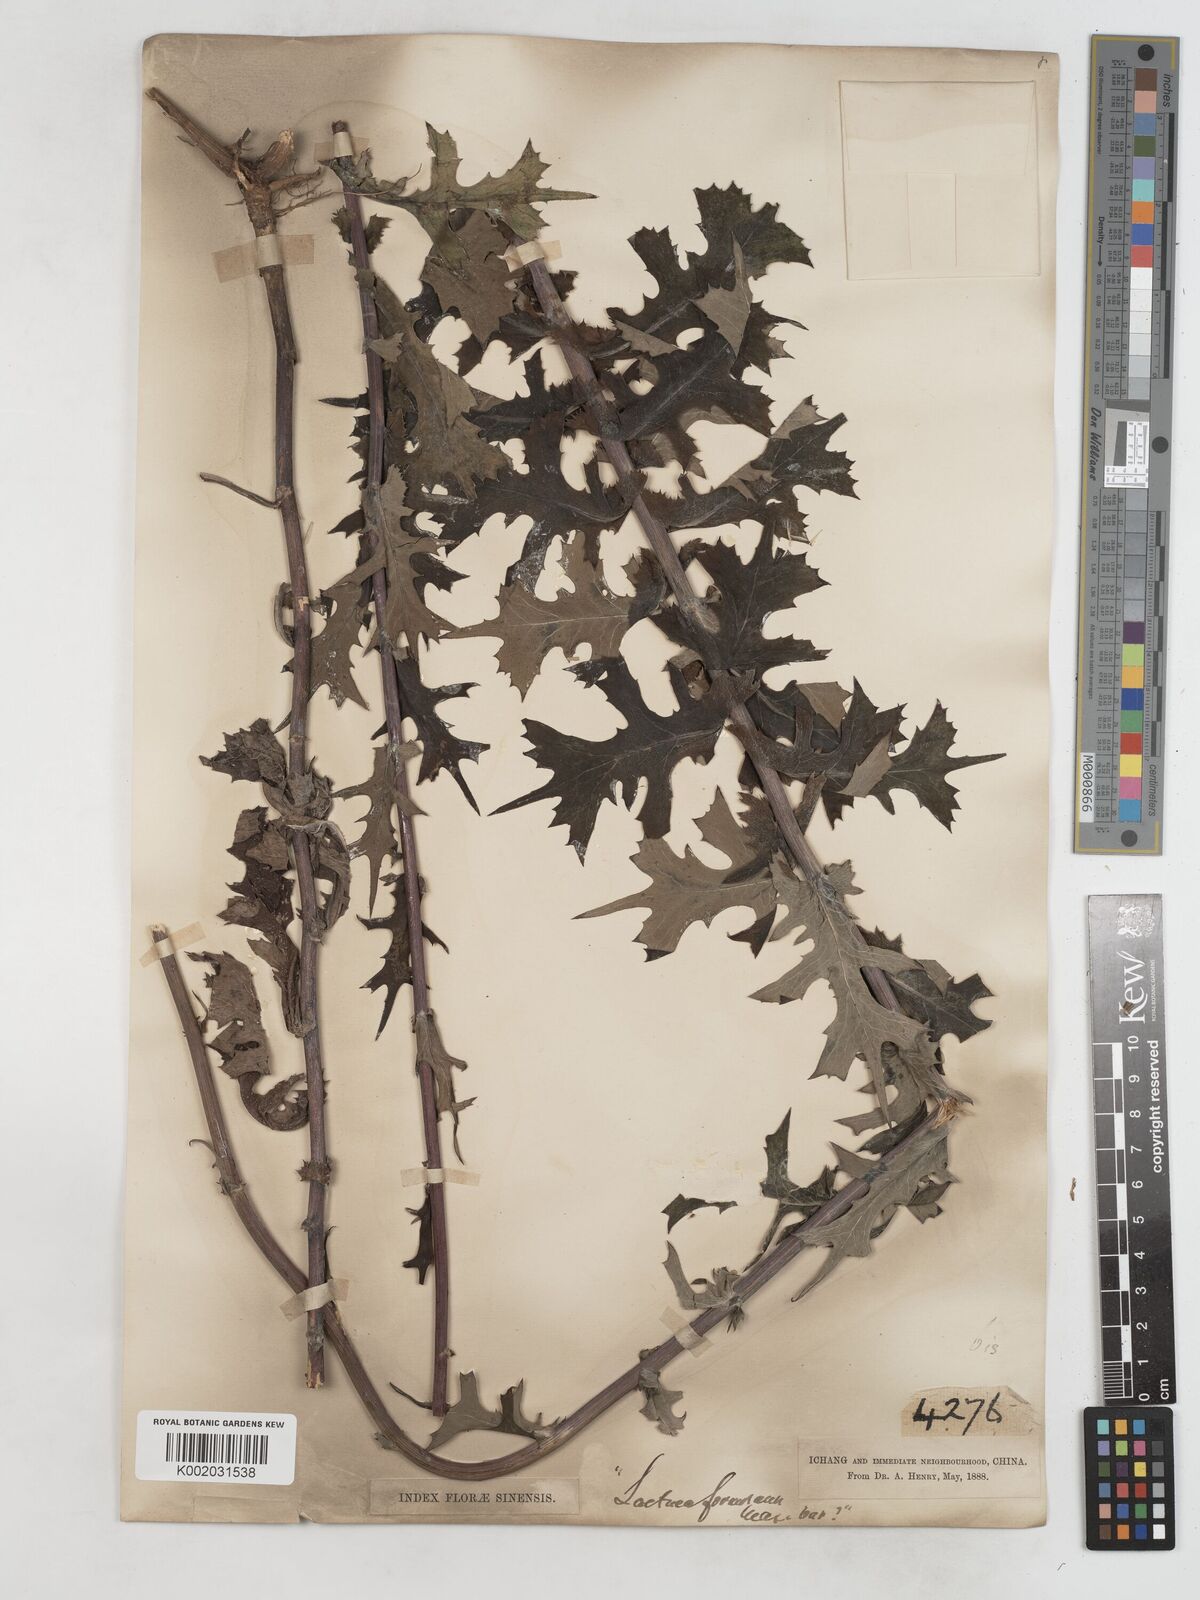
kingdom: Plantae
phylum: Tracheophyta
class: Magnoliopsida
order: Asterales
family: Asteraceae
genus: Lactuca
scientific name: Lactuca formosana
